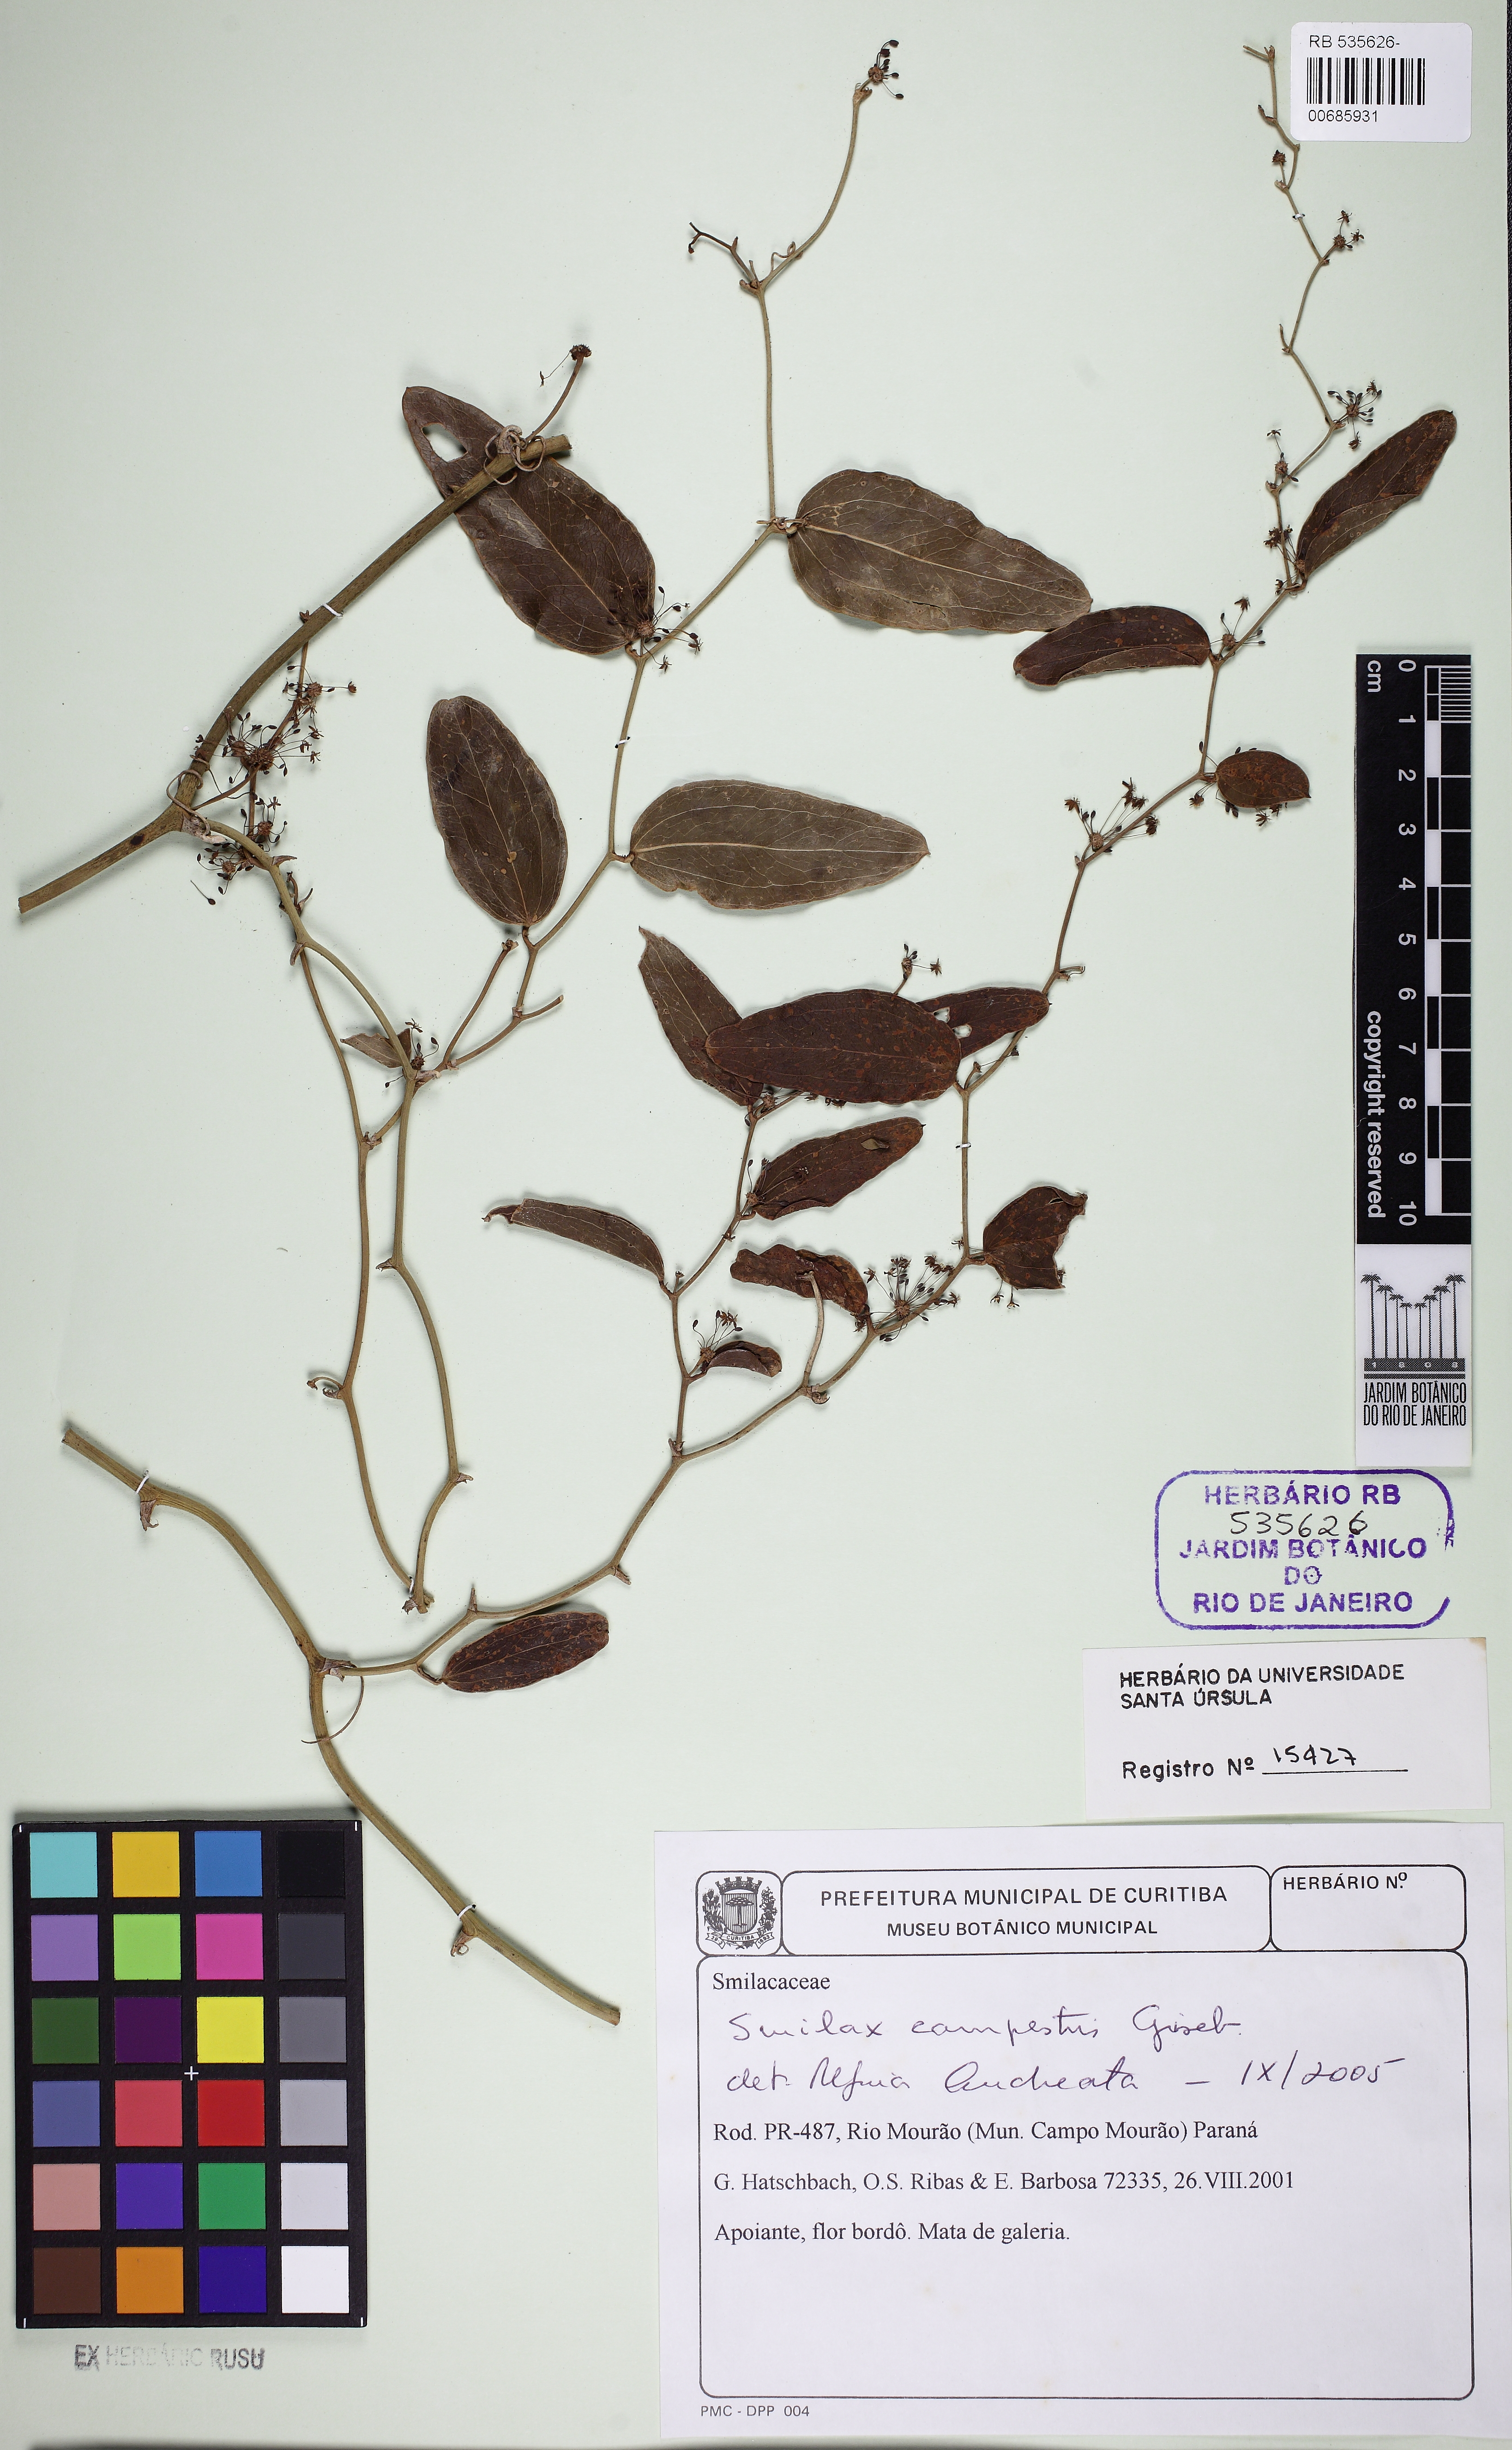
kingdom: Plantae
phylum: Tracheophyta
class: Liliopsida
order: Liliales
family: Smilacaceae
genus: Smilax
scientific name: Smilax campestris
